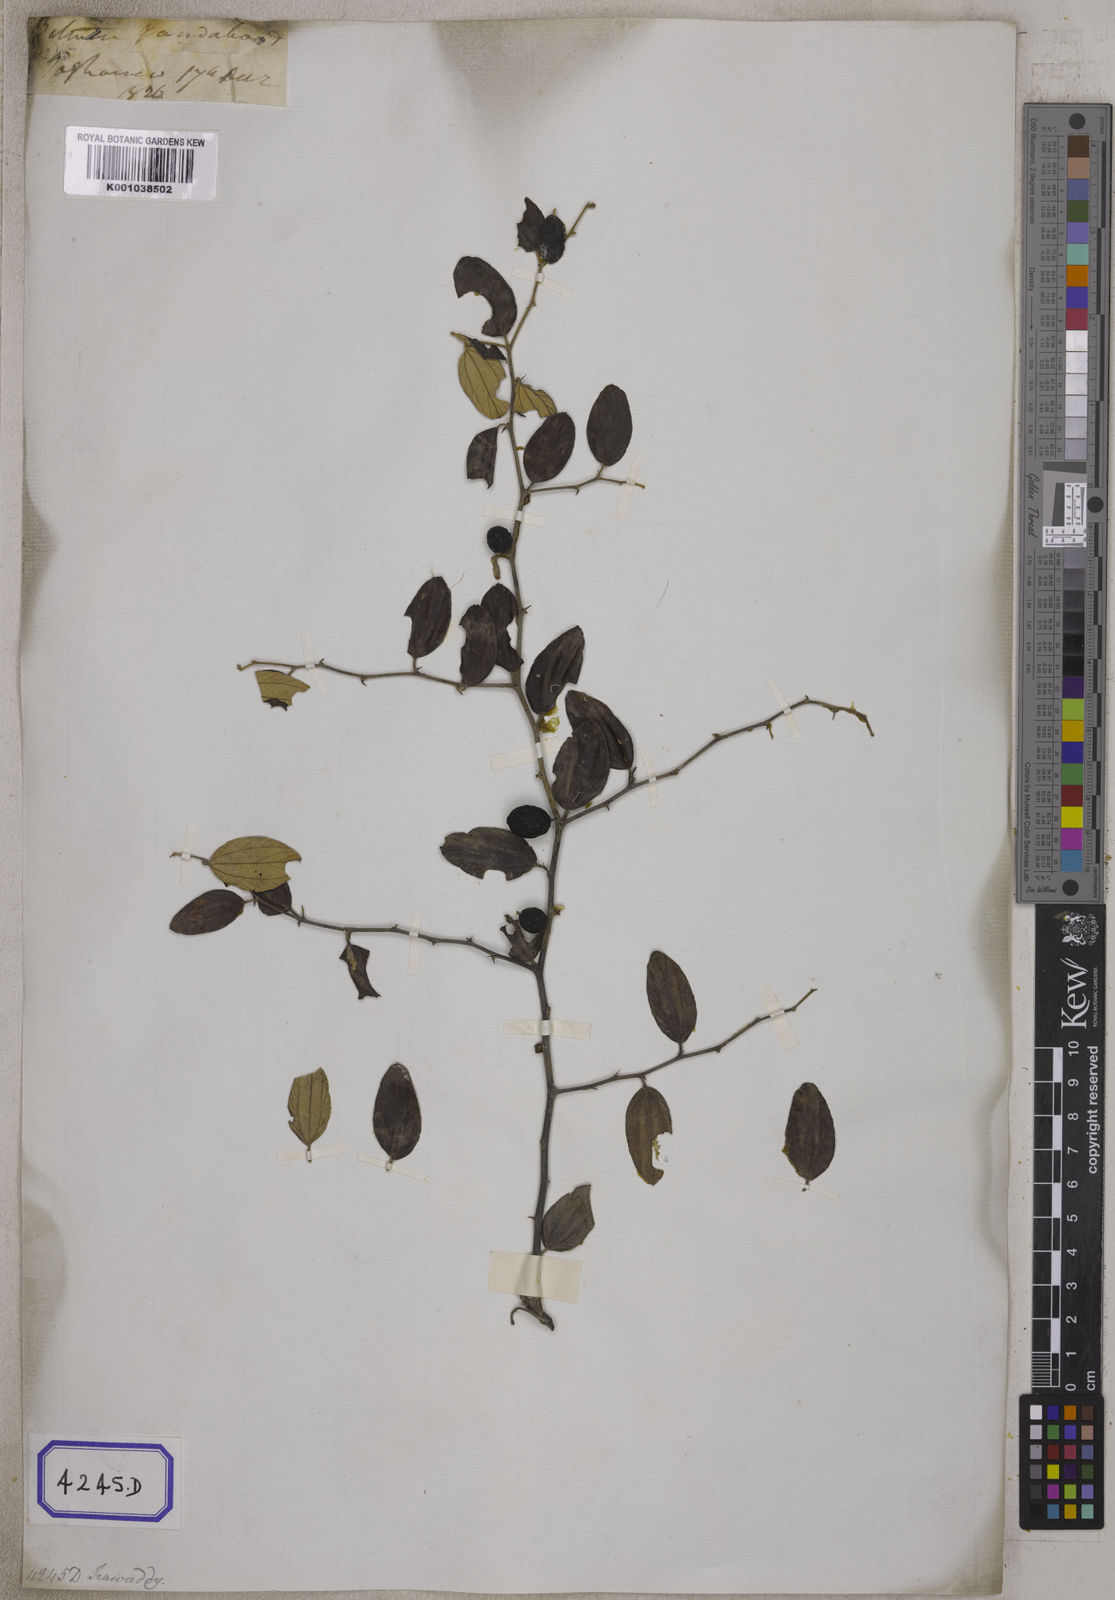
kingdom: Plantae
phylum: Tracheophyta
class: Magnoliopsida
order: Rosales
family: Rhamnaceae
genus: Ziziphus
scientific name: Ziziphus
